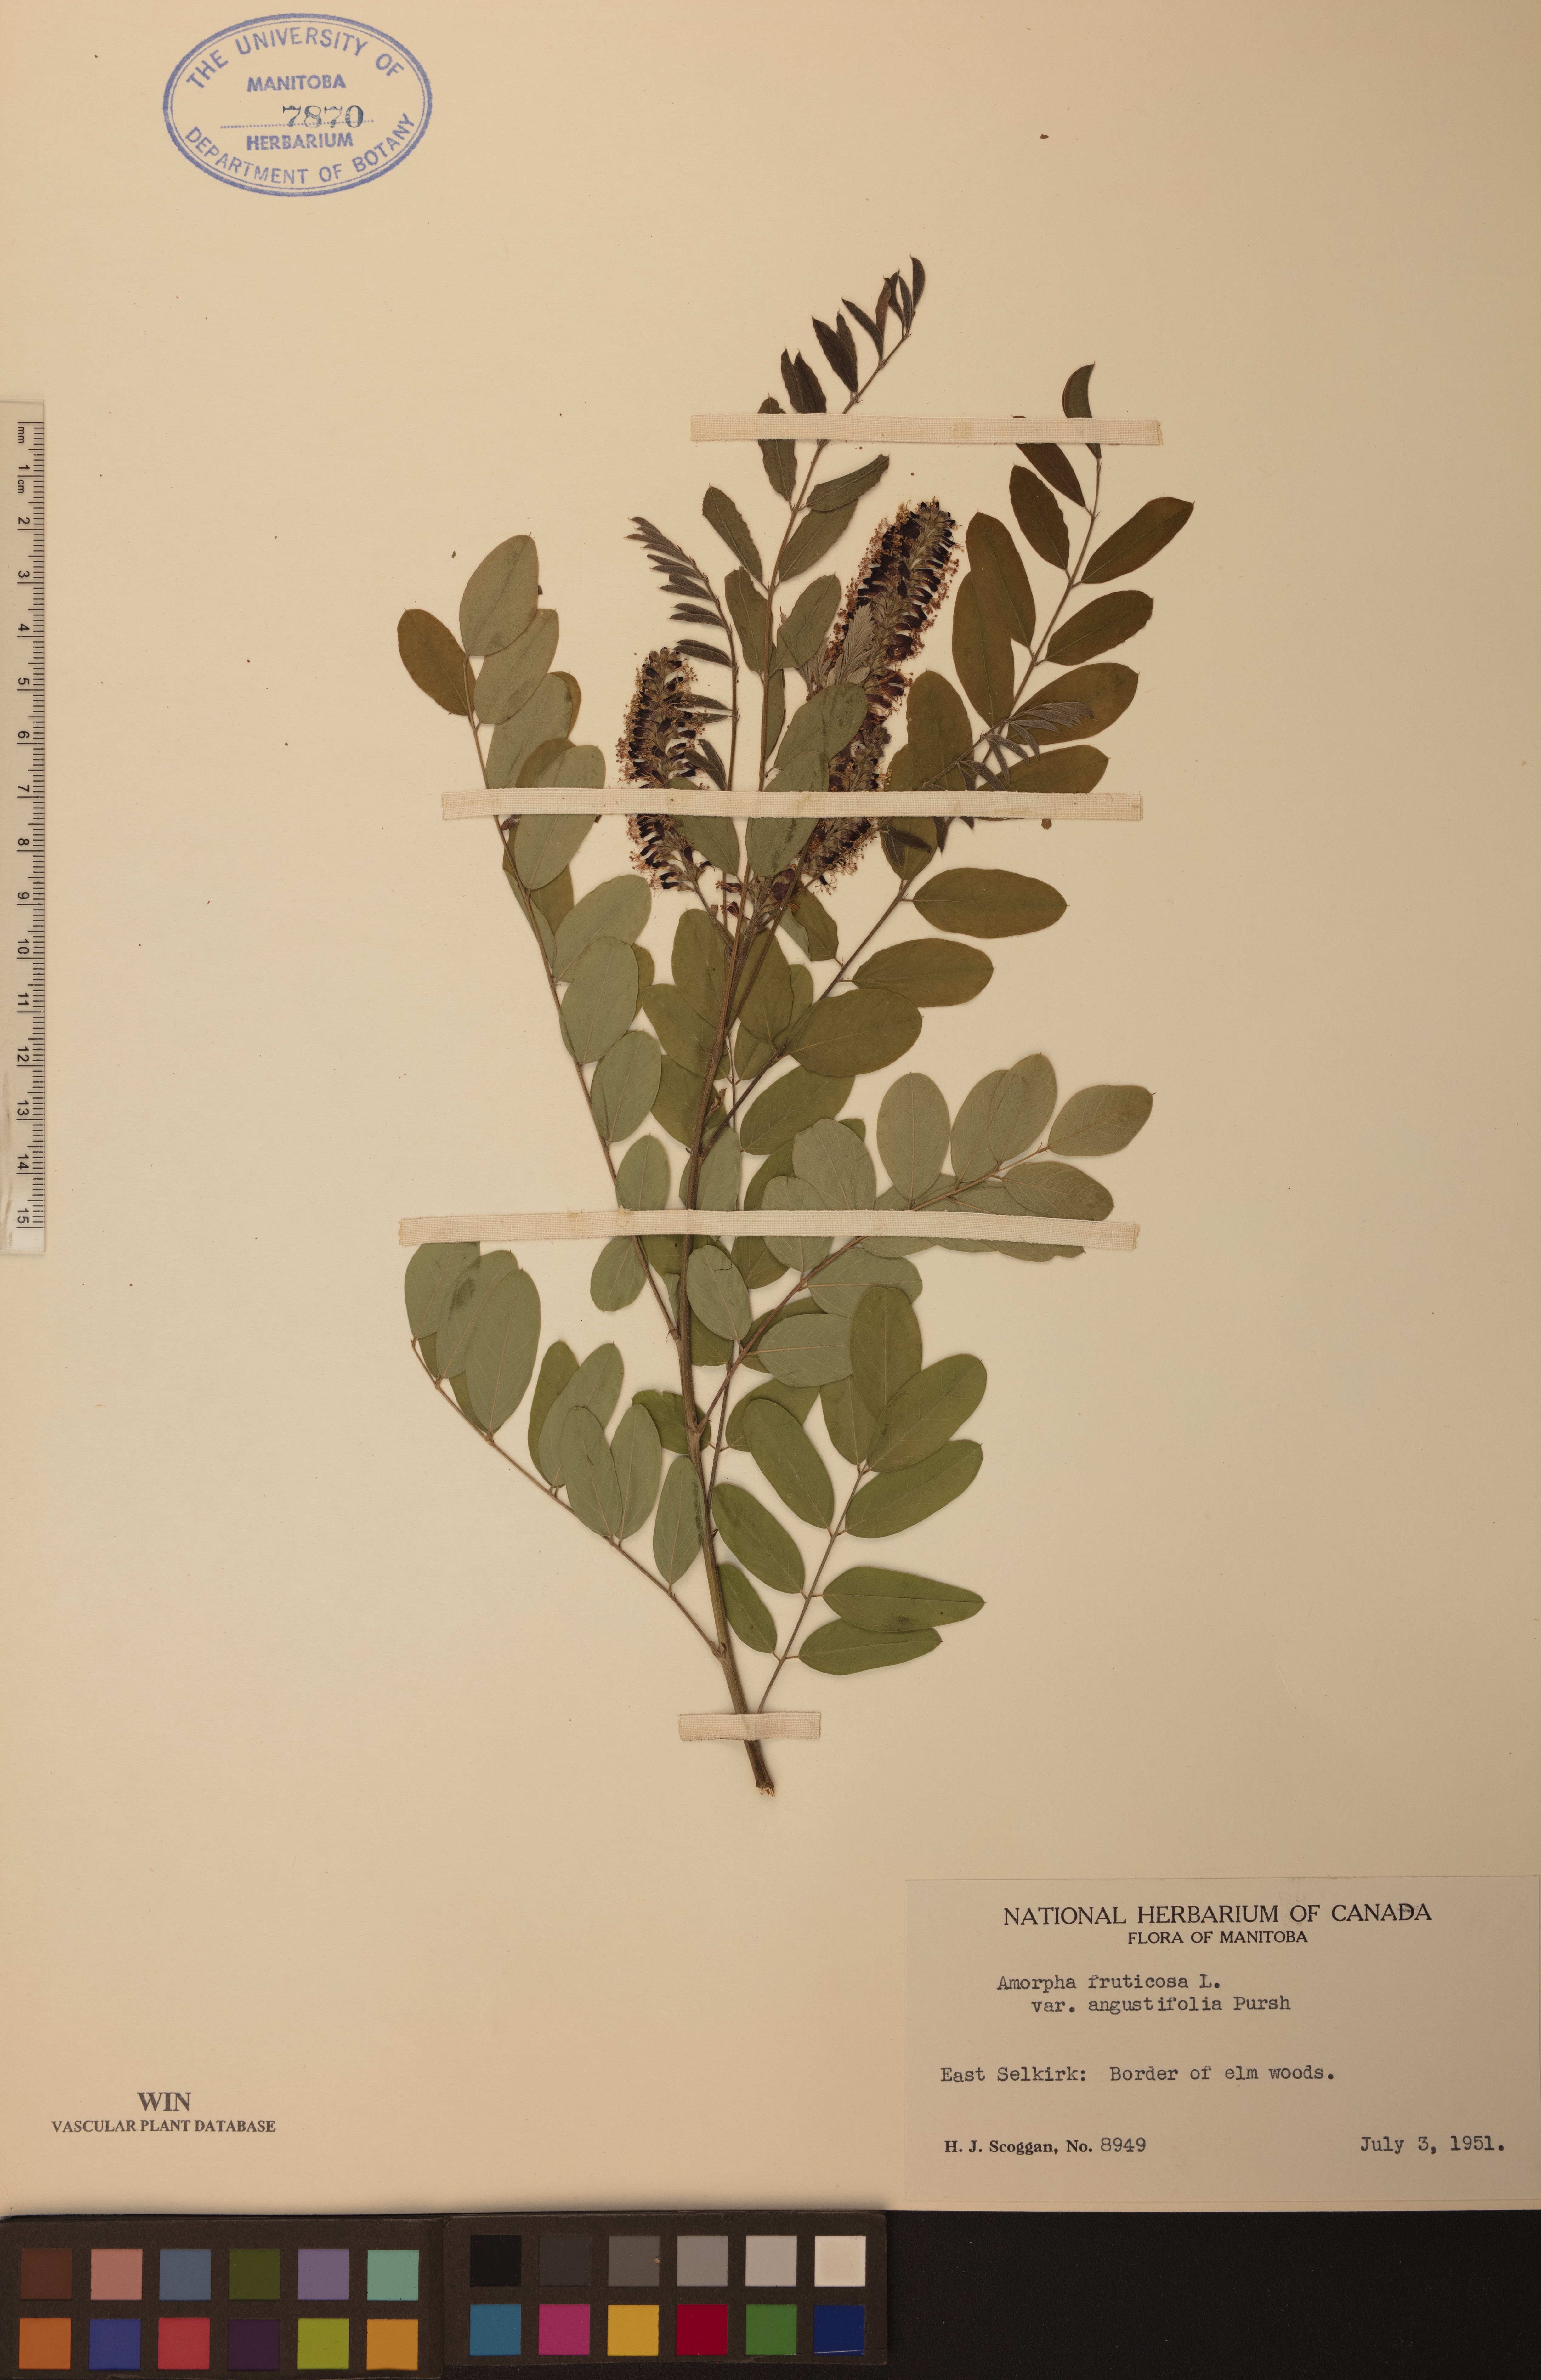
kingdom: Plantae
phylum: Tracheophyta
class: Magnoliopsida
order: Fabales
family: Fabaceae
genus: Amorpha
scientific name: Amorpha fruticosa
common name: False indigo
